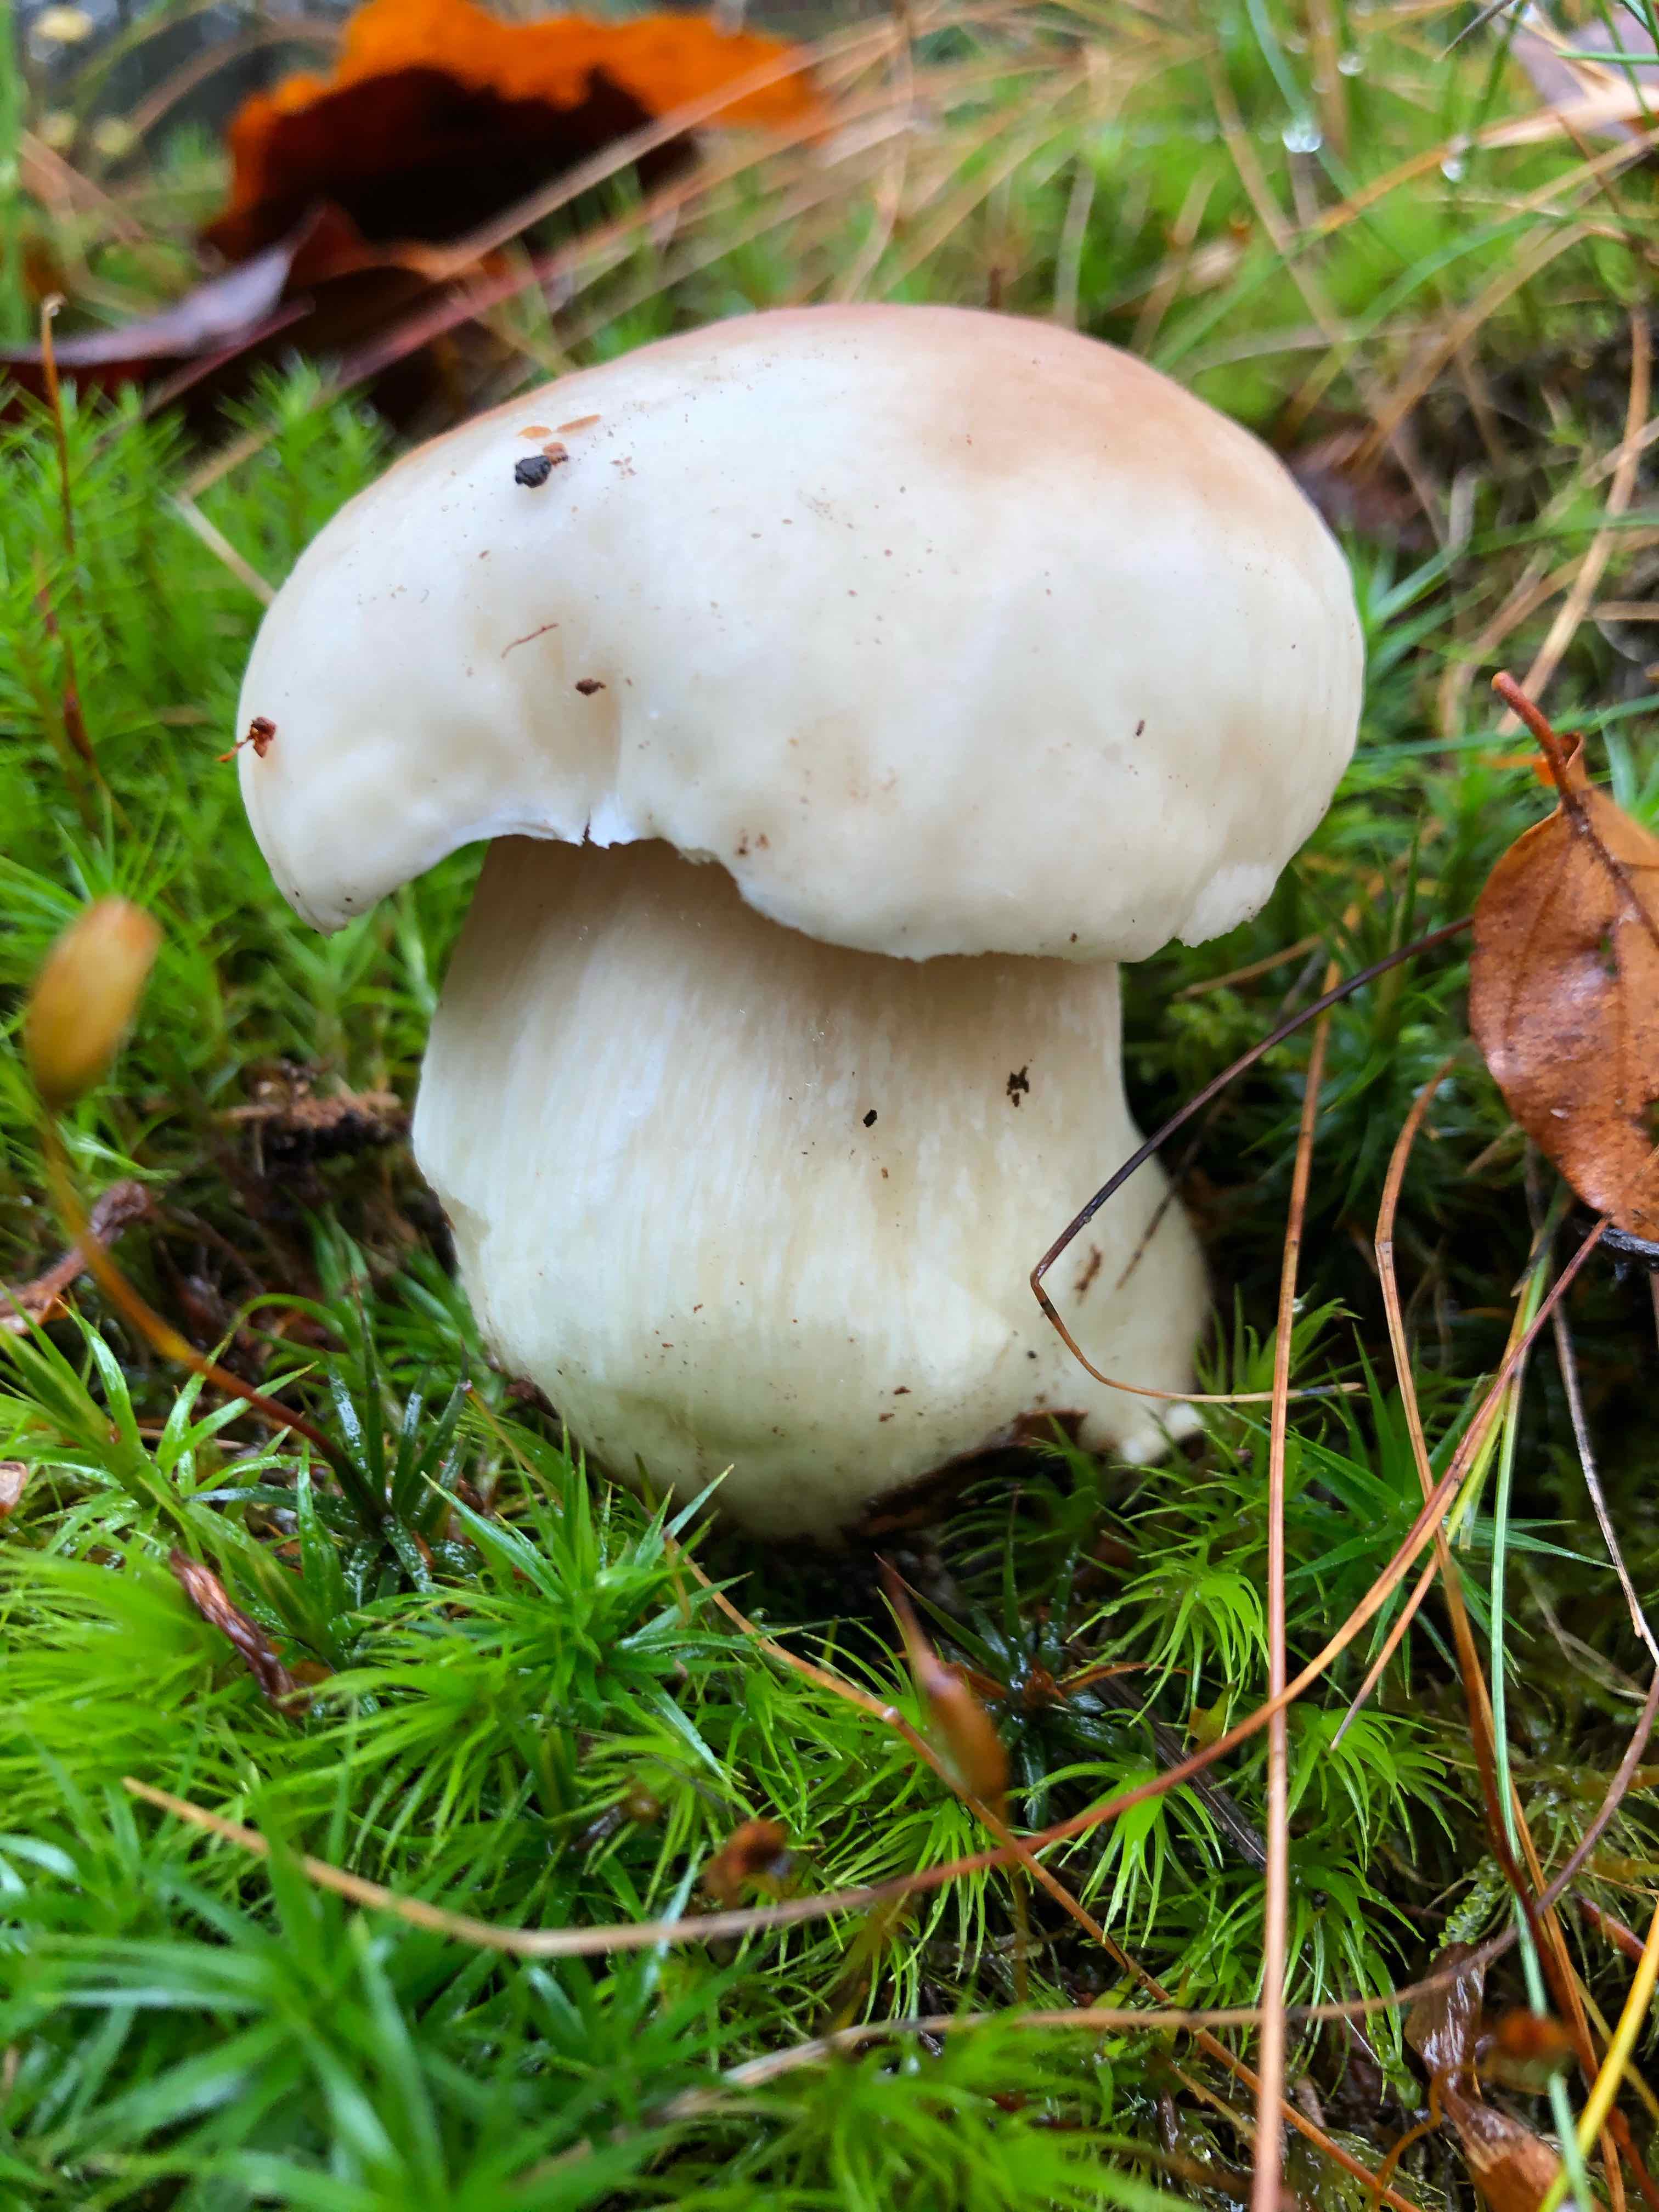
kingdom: Fungi
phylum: Basidiomycota
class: Agaricomycetes
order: Boletales
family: Boletaceae
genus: Boletus
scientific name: Boletus edulis
